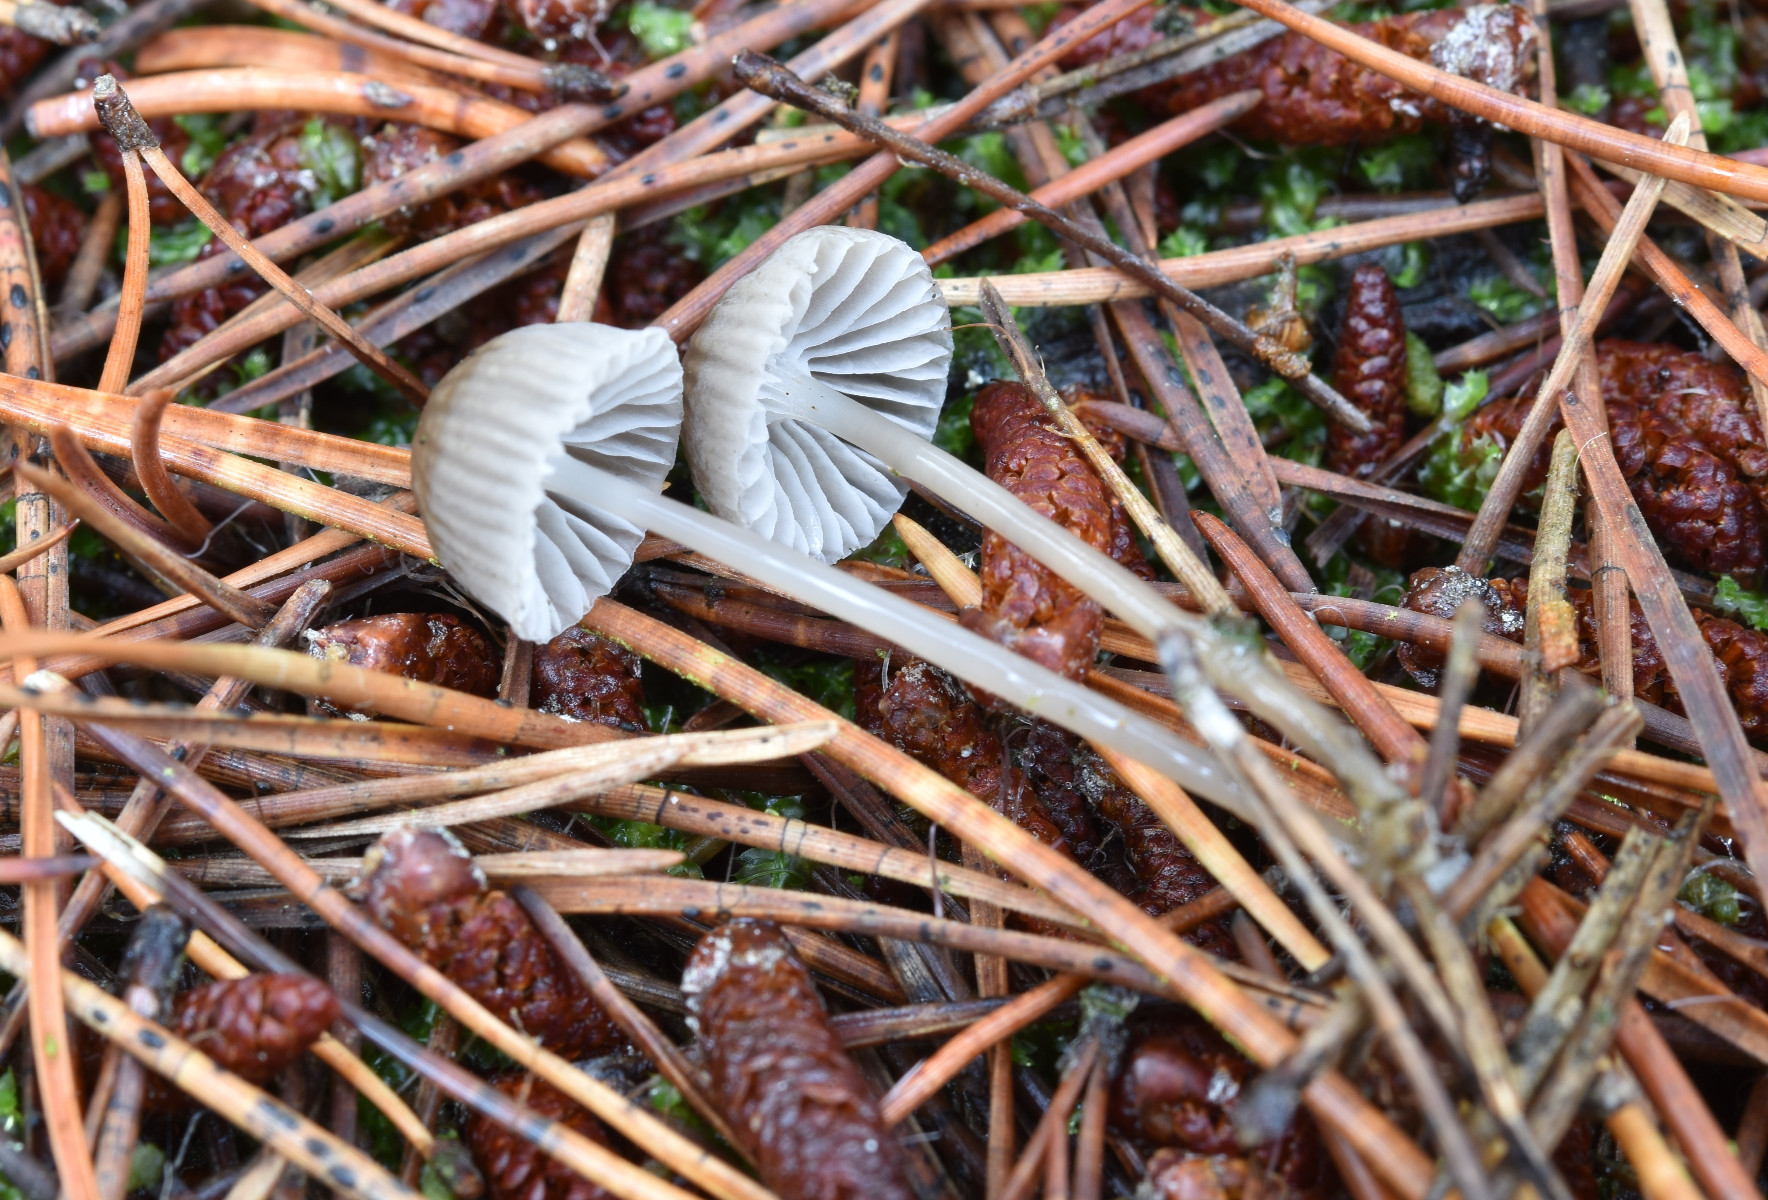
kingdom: Fungi
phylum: Basidiomycota
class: Agaricomycetes
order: Agaricales
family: Mycenaceae
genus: Mycena
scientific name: Mycena clavicularis
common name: fyrre-huesvamp
